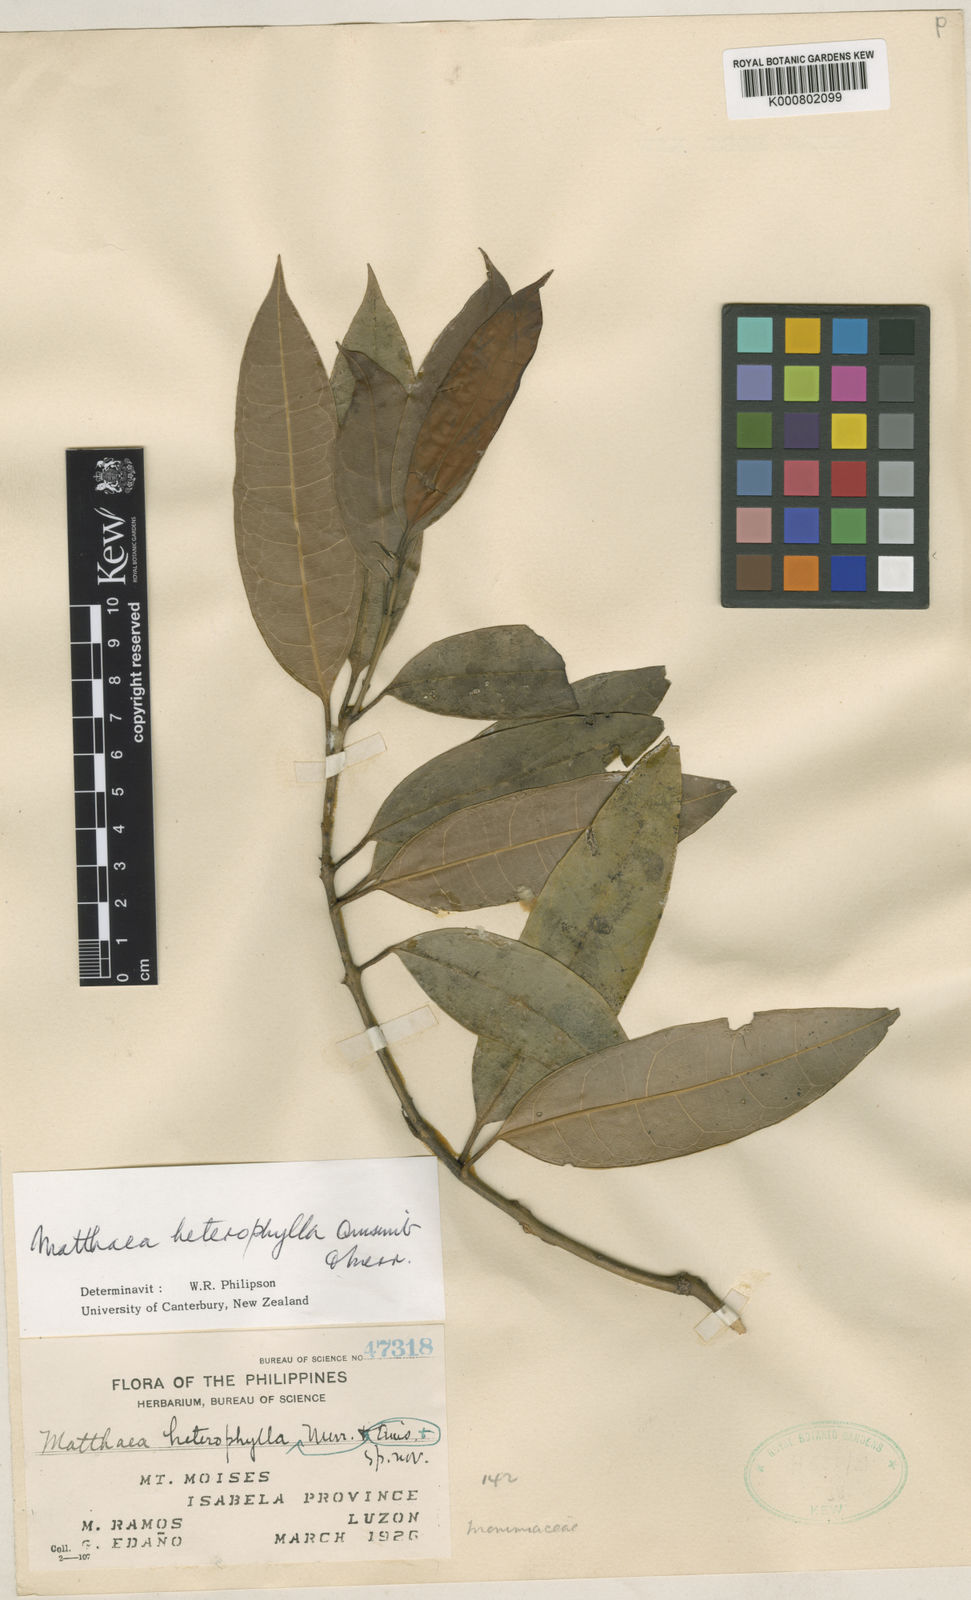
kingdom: Plantae
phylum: Tracheophyta
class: Magnoliopsida
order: Laurales
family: Monimiaceae
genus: Matthaea
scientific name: Matthaea heterophylla
